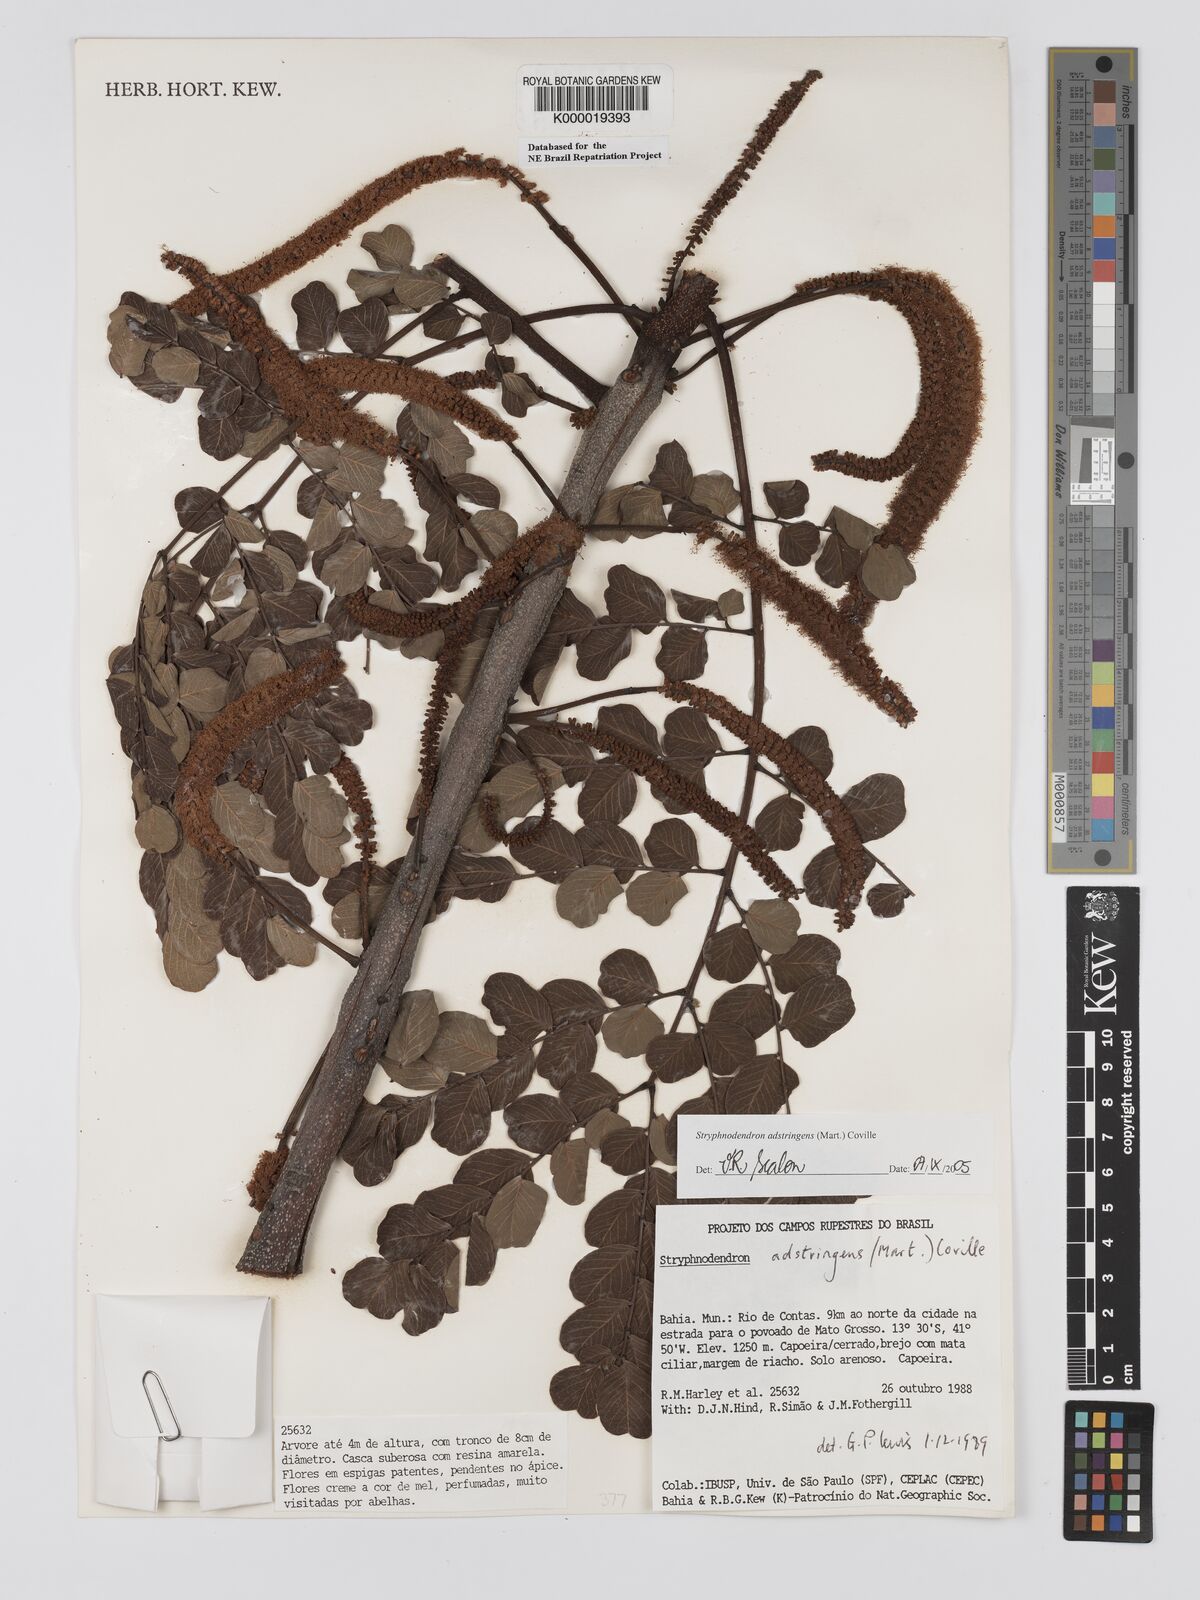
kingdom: Plantae
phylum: Tracheophyta
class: Magnoliopsida
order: Fabales
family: Fabaceae
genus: Stryphnodendron
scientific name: Stryphnodendron adstringens
